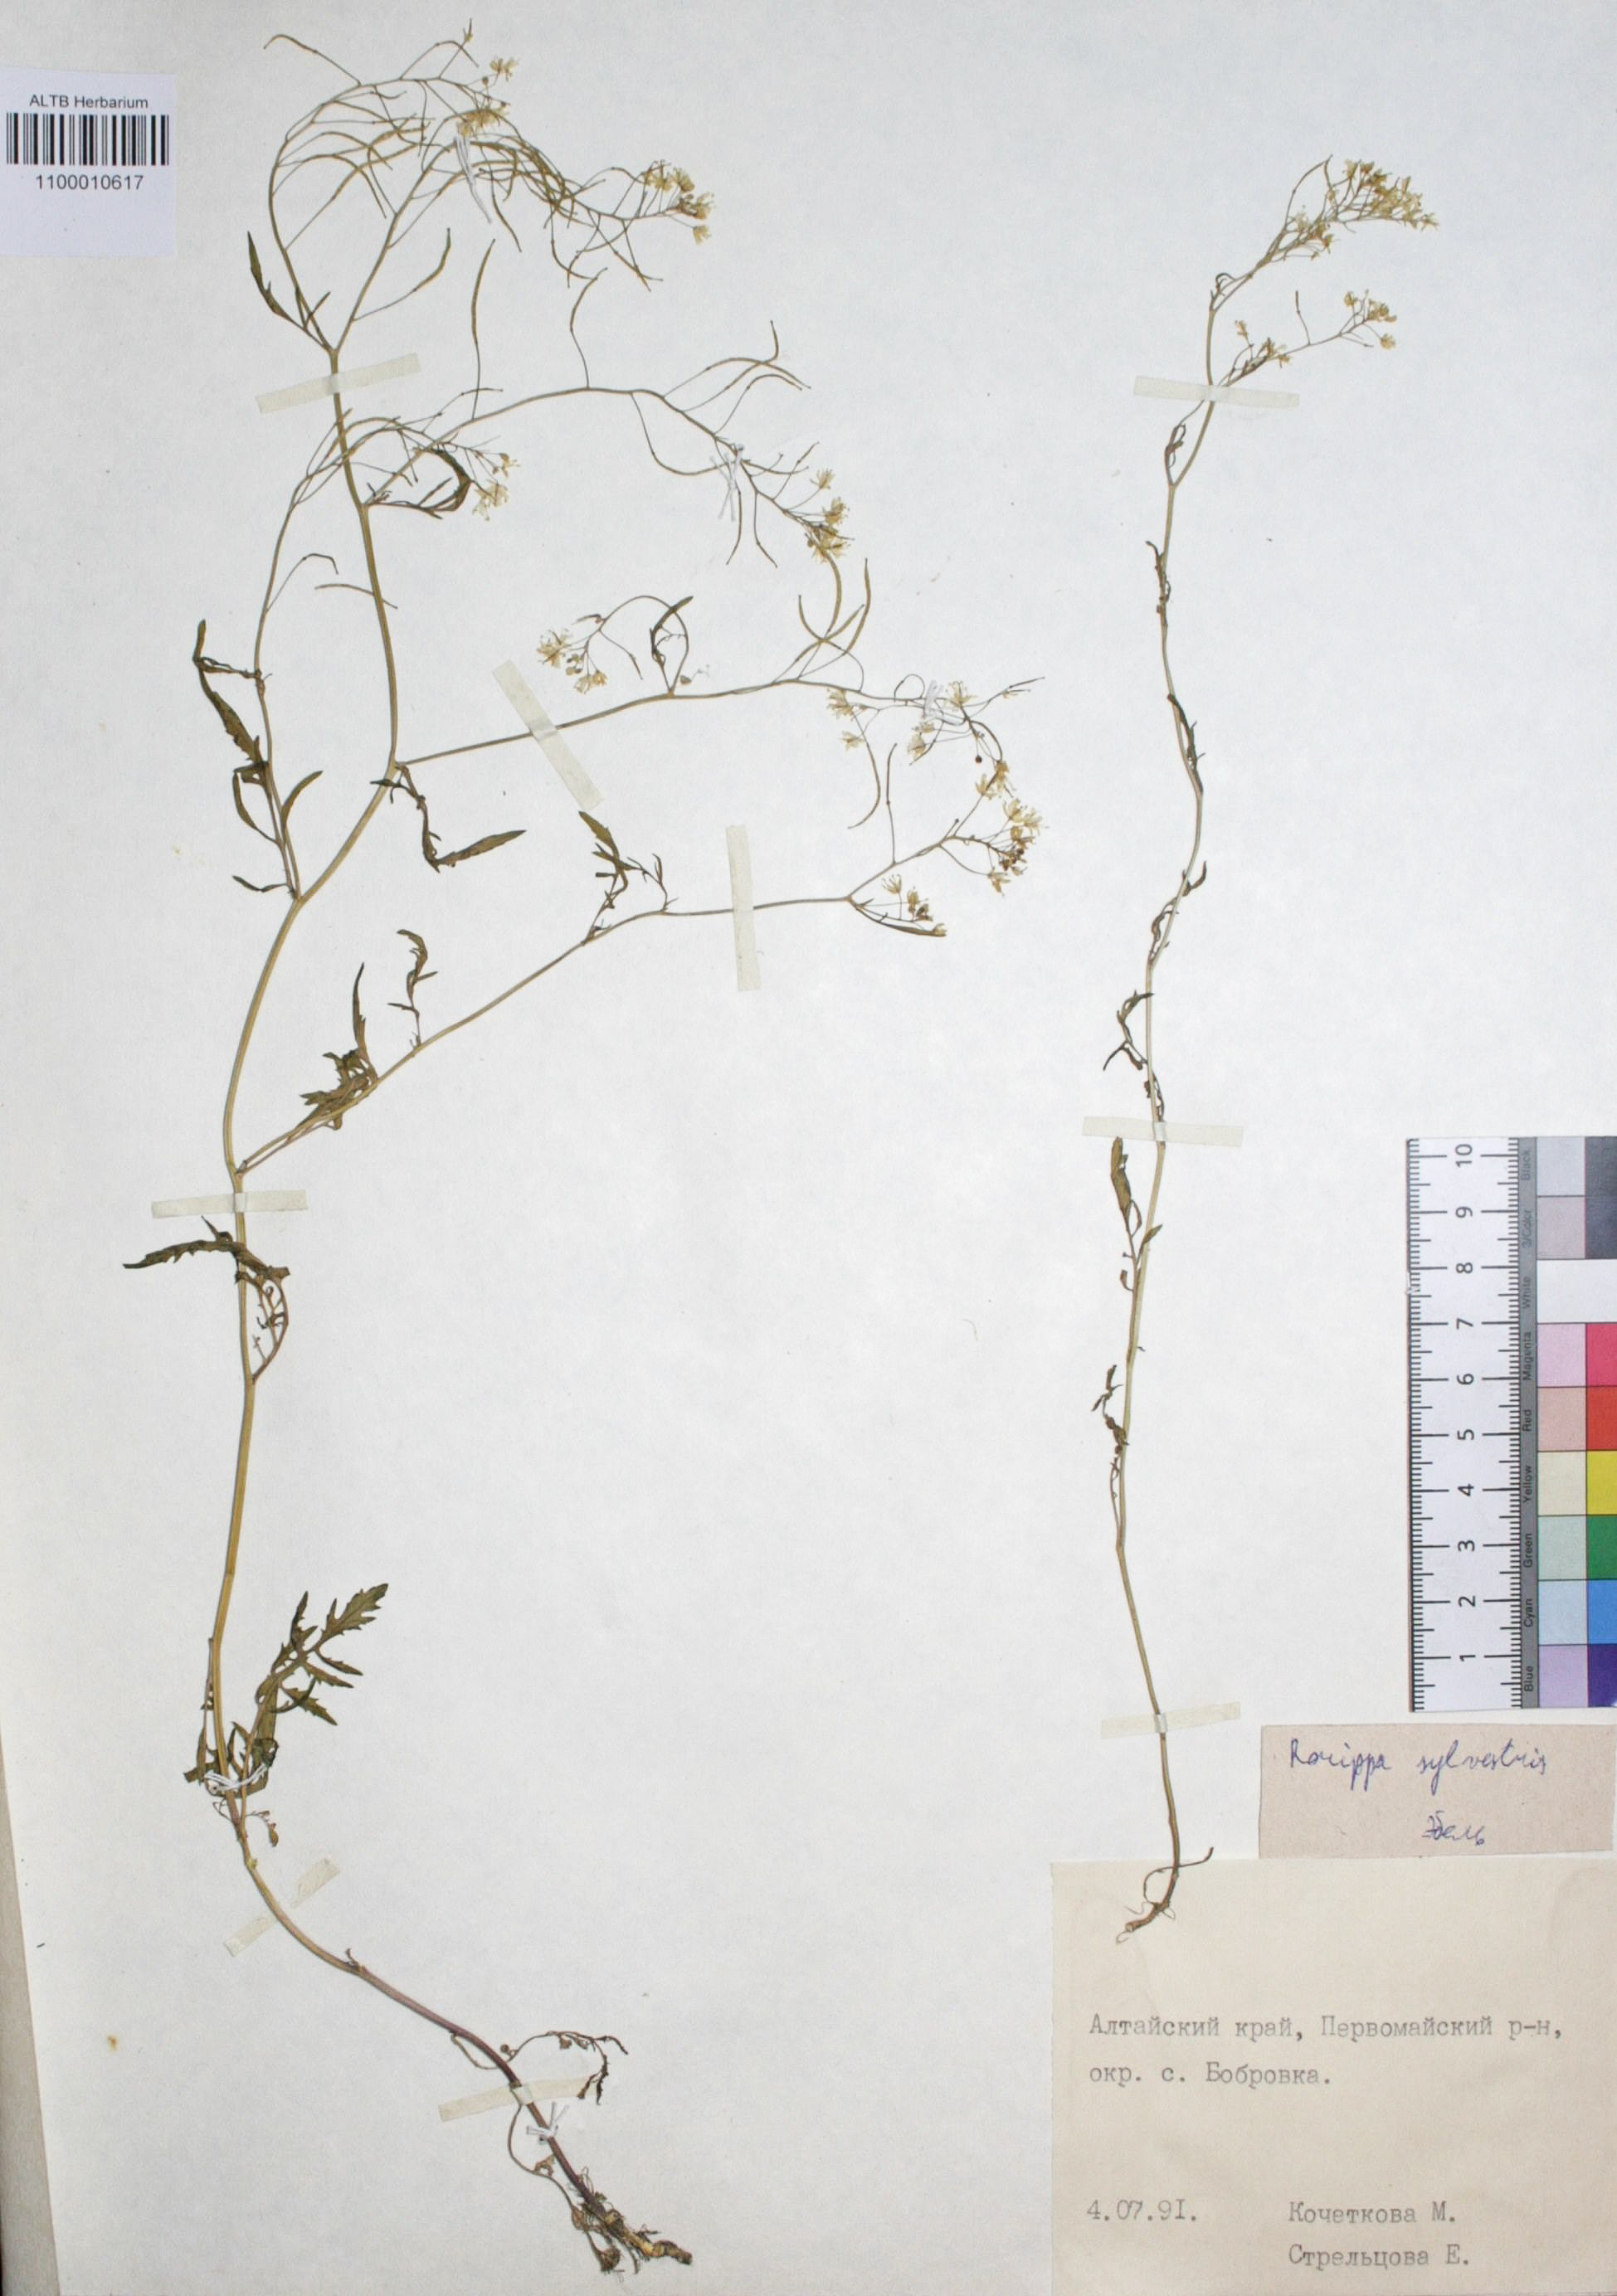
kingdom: Plantae
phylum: Tracheophyta
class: Magnoliopsida
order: Brassicales
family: Brassicaceae
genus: Rorippa
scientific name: Rorippa sylvestris
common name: Creeping yellowcress
